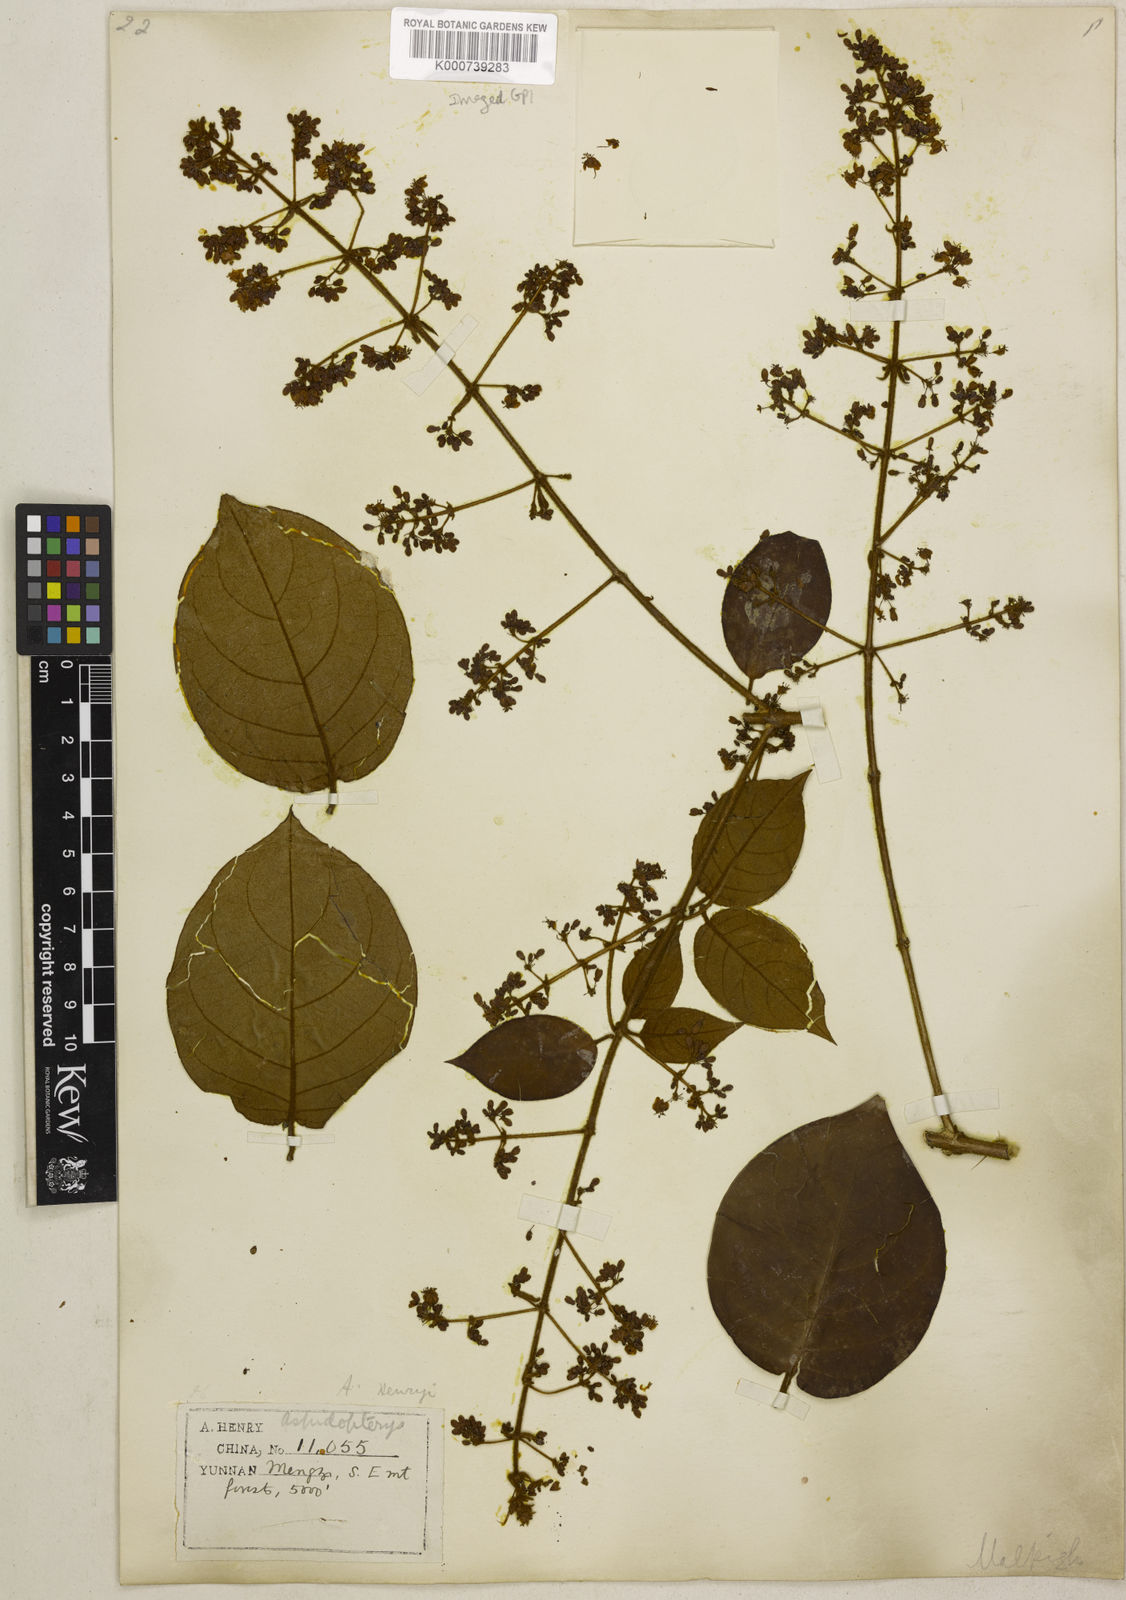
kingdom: Plantae
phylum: Tracheophyta
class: Magnoliopsida
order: Malpighiales
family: Malpighiaceae
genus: Aspidopterys
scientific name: Aspidopterys henryi
